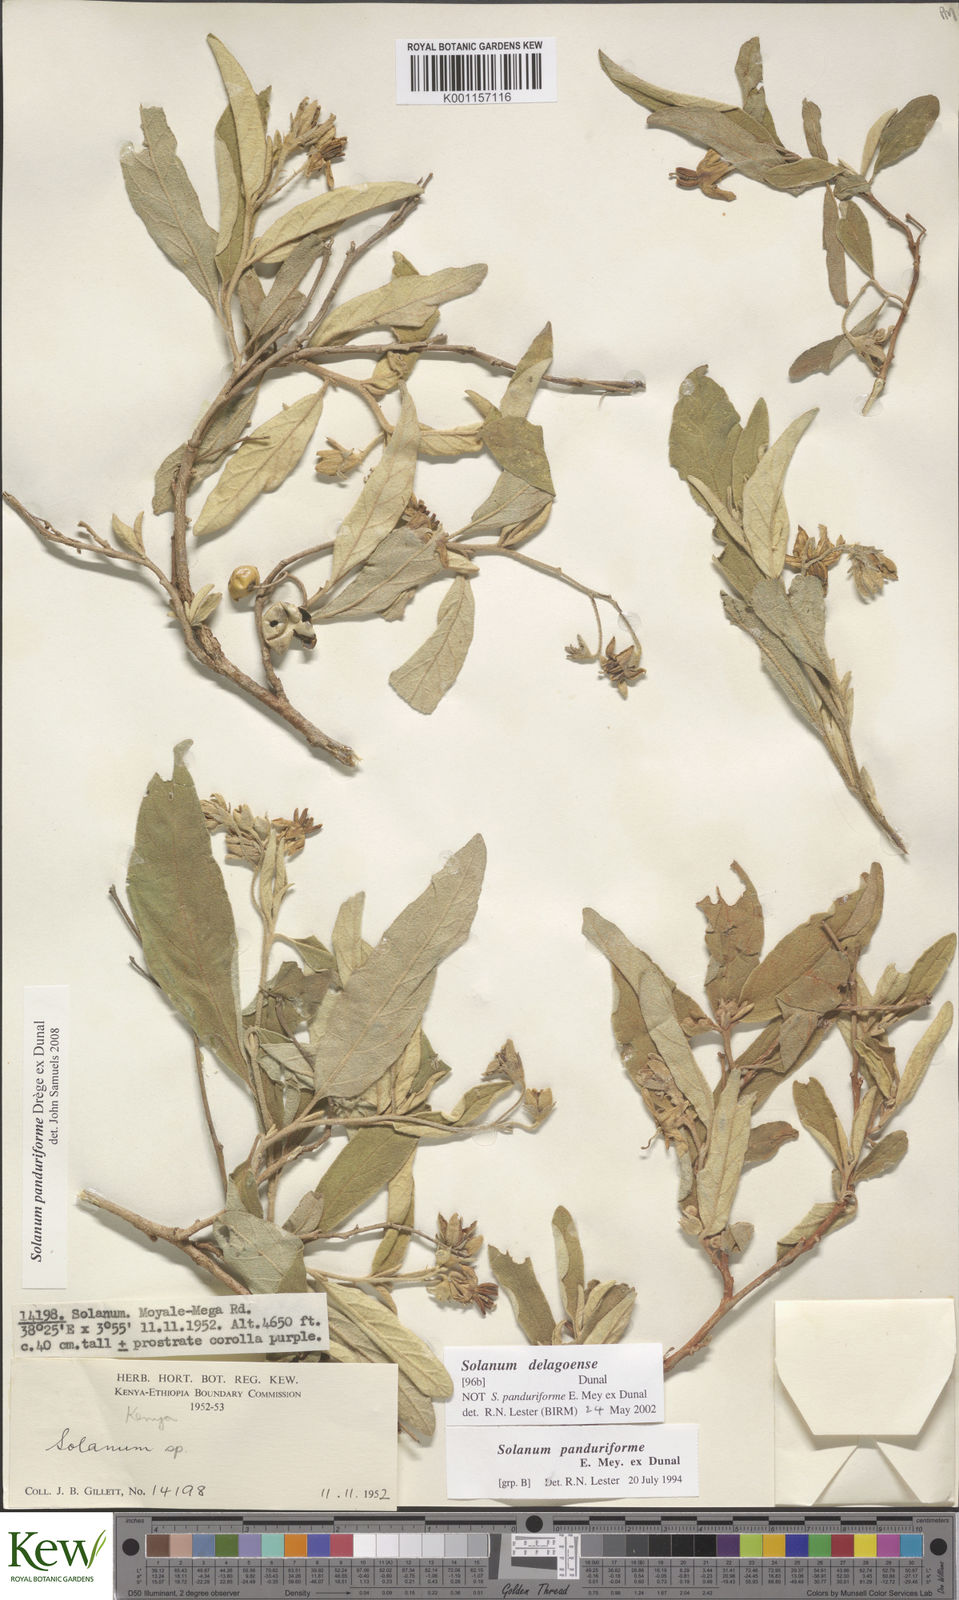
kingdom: Plantae
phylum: Tracheophyta
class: Magnoliopsida
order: Solanales
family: Solanaceae
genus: Solanum
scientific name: Solanum campylacanthum
